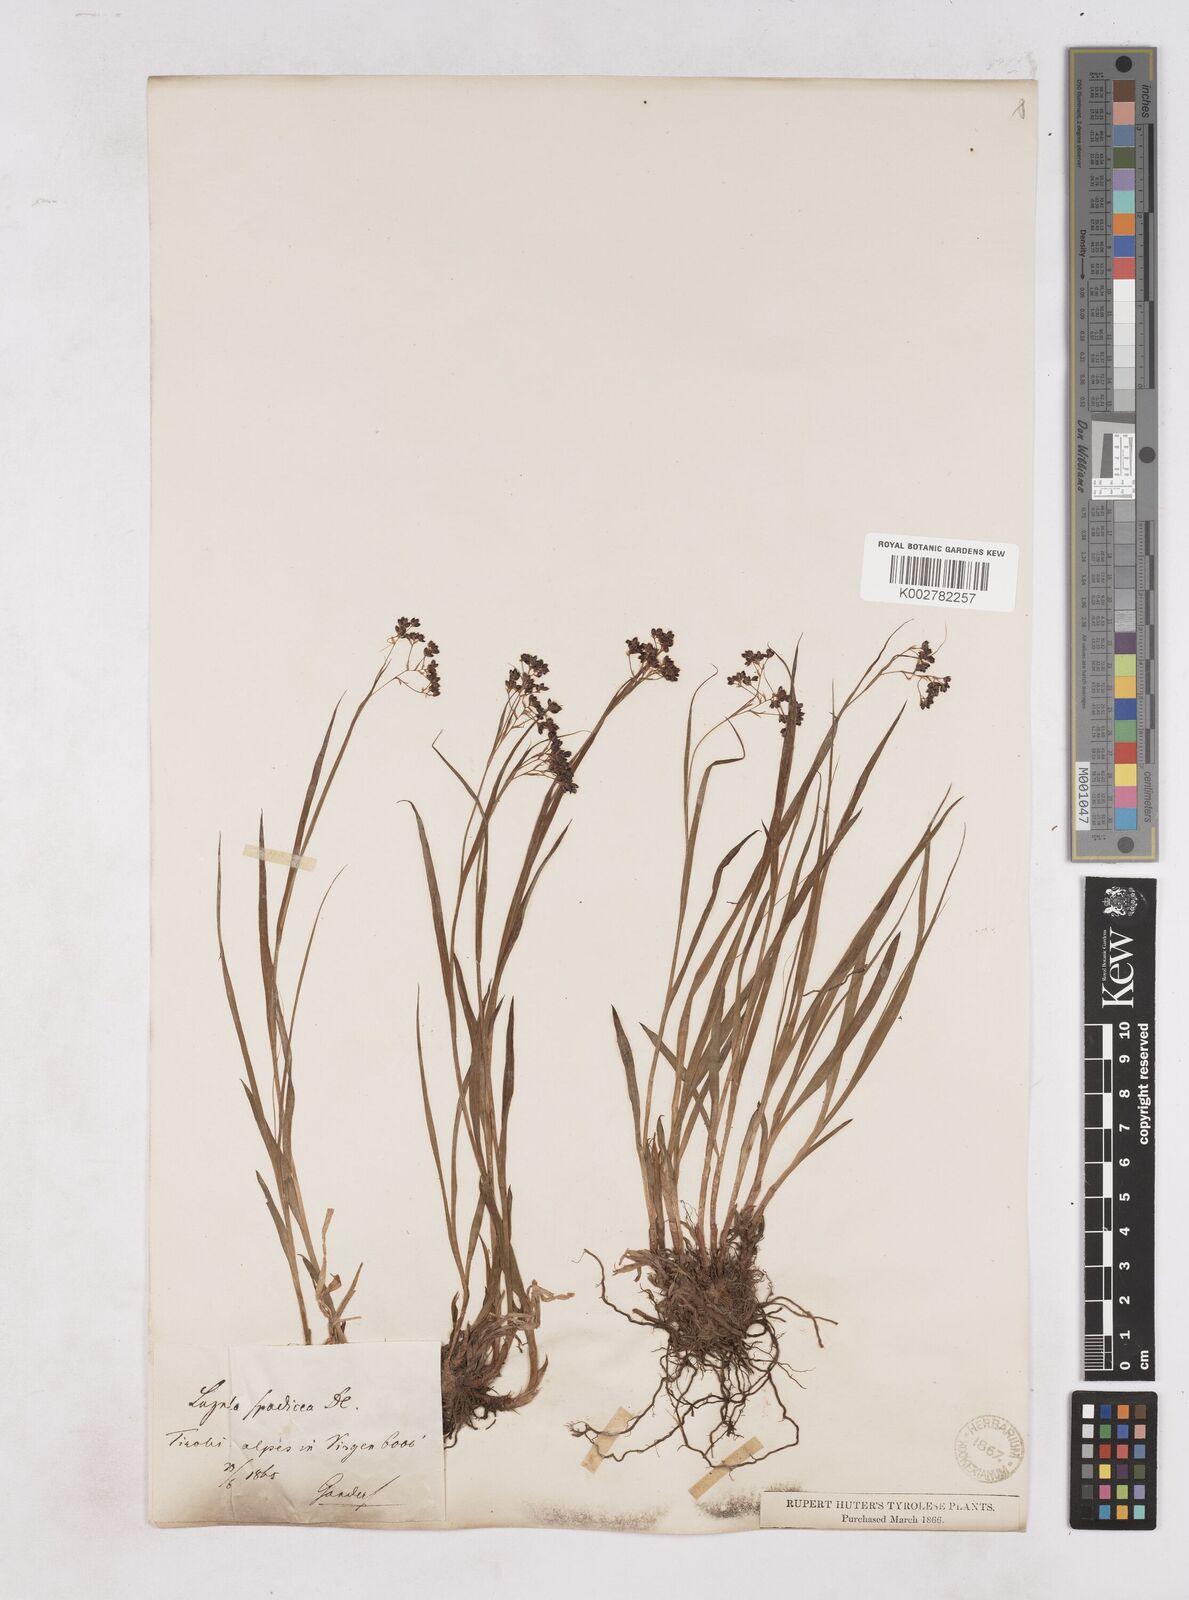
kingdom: Plantae
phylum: Tracheophyta
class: Liliopsida
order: Poales
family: Juncaceae
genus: Luzula
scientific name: Luzula alpinopilosa
